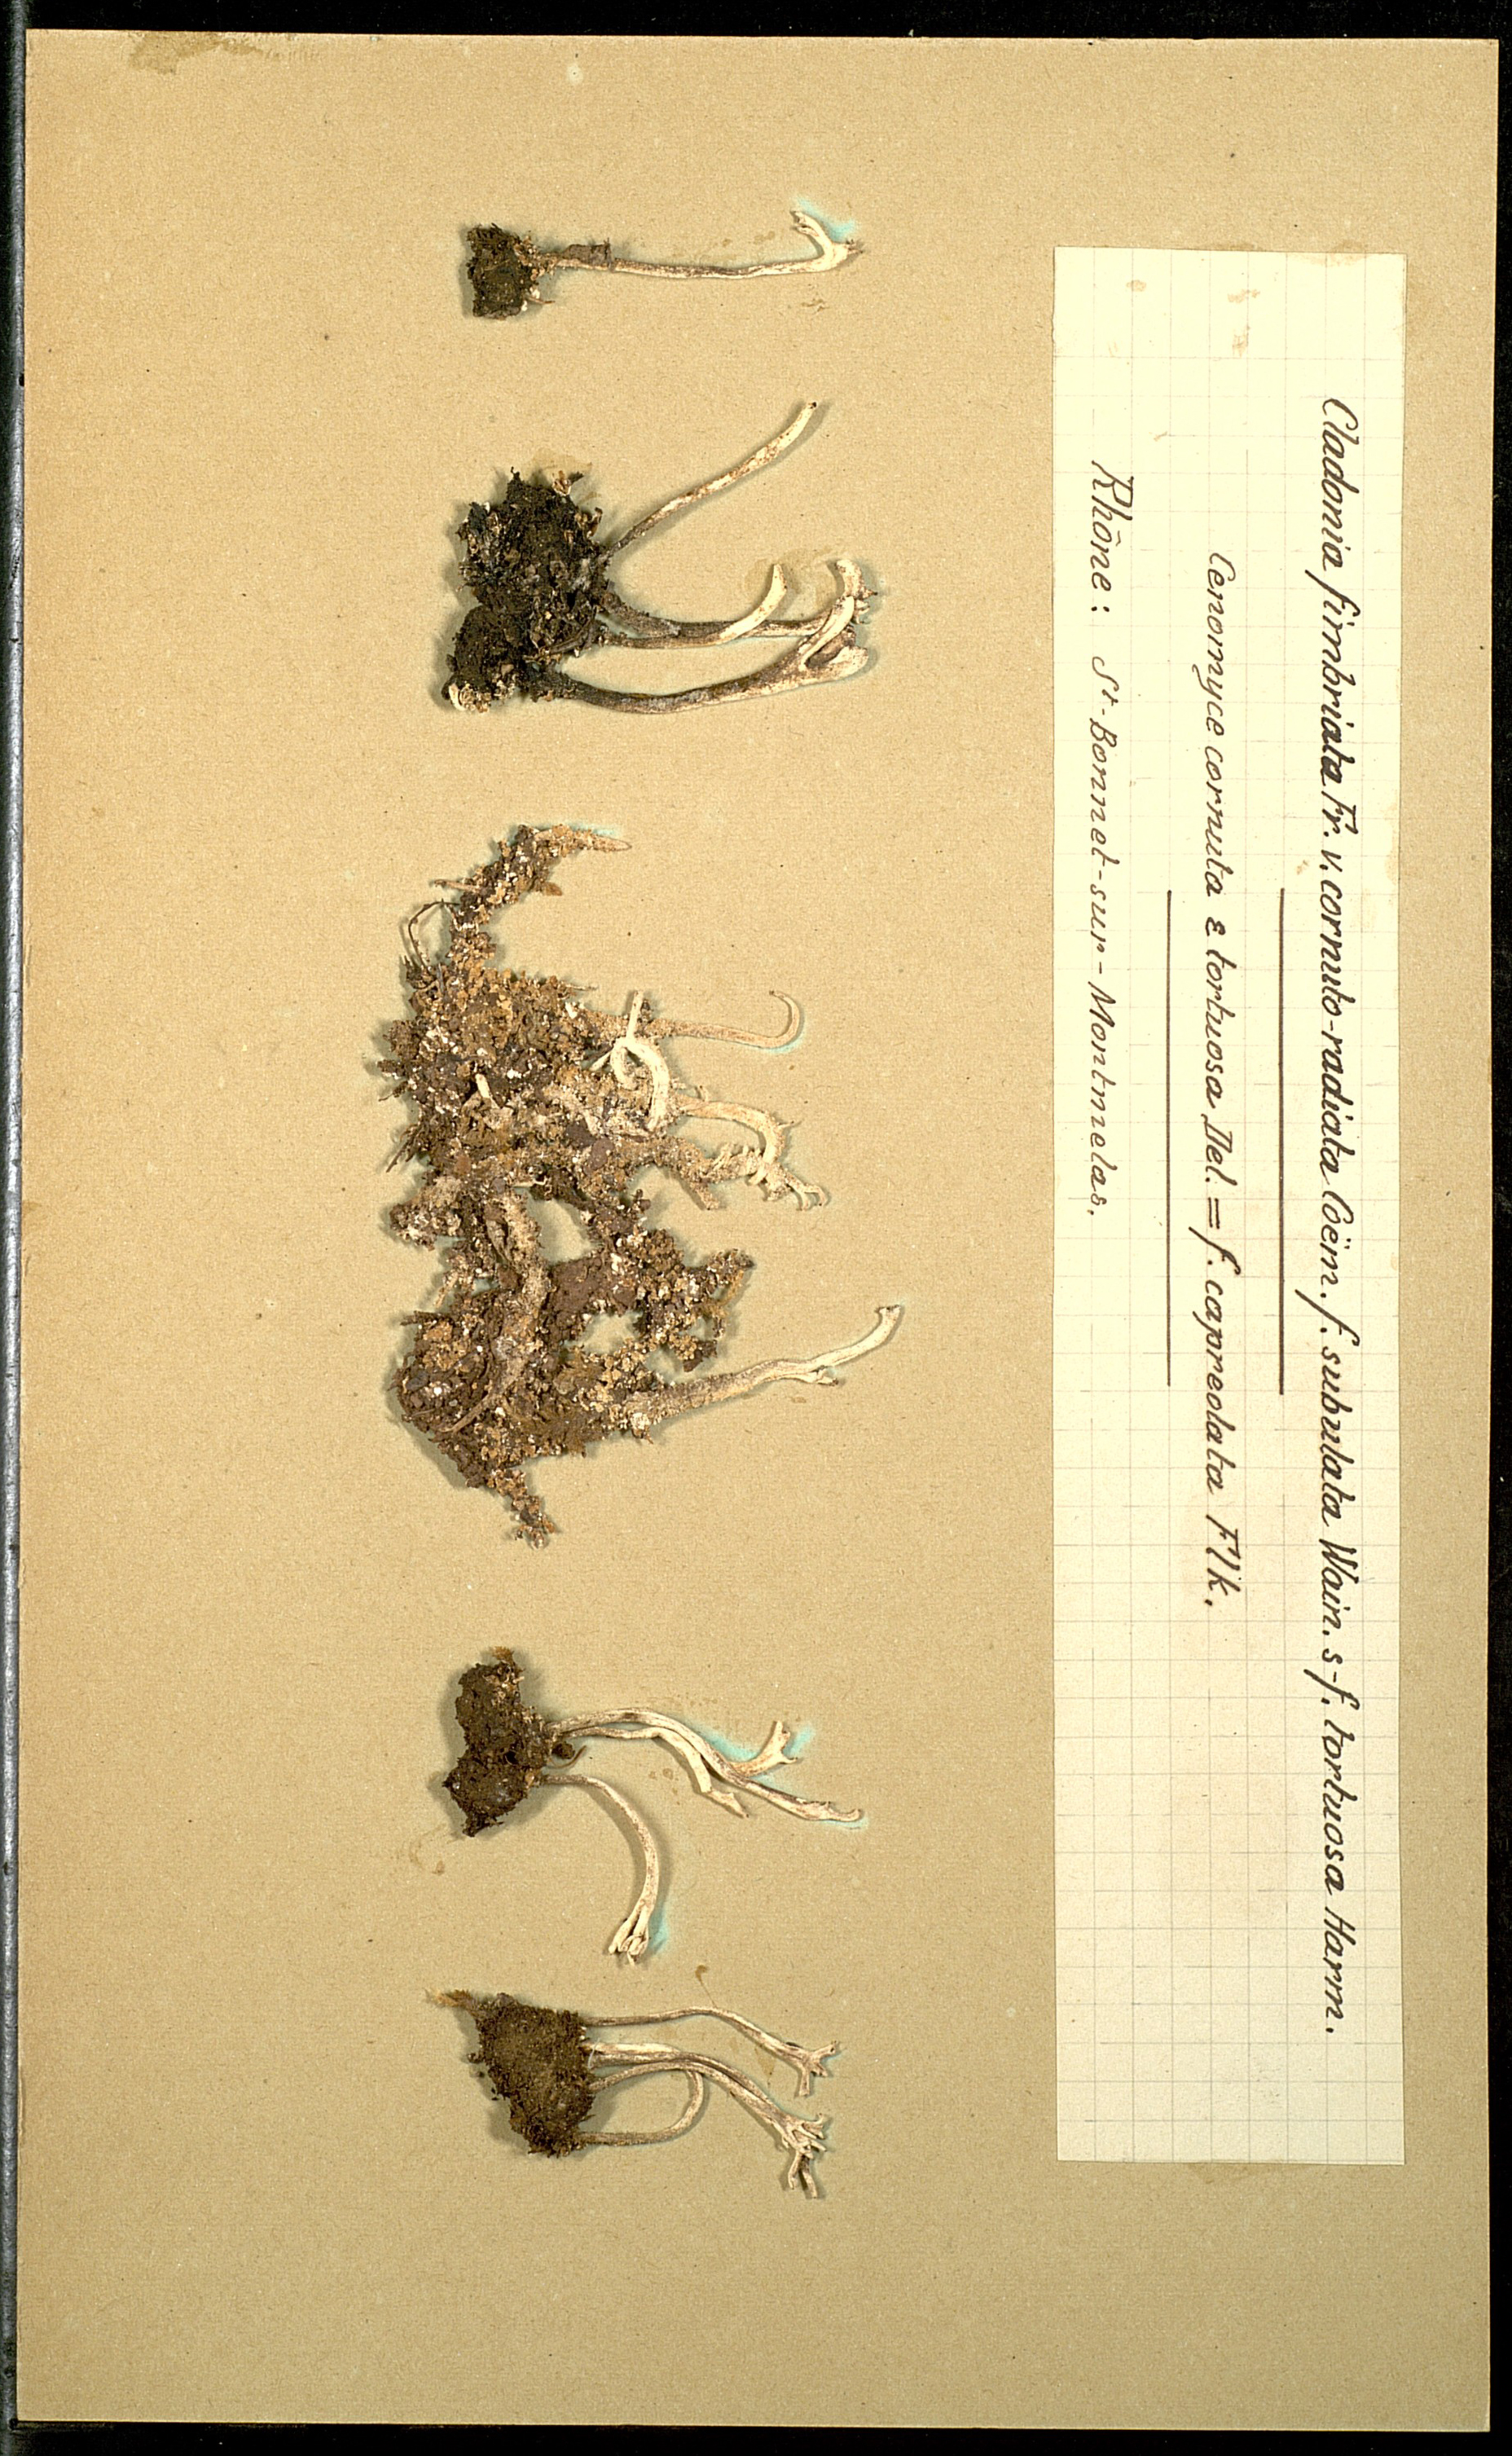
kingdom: Fungi
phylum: Ascomycota
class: Lecanoromycetes
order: Lecanorales
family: Cladoniaceae
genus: Cladonia
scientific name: Cladonia subulata
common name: Antlered powderhorn
